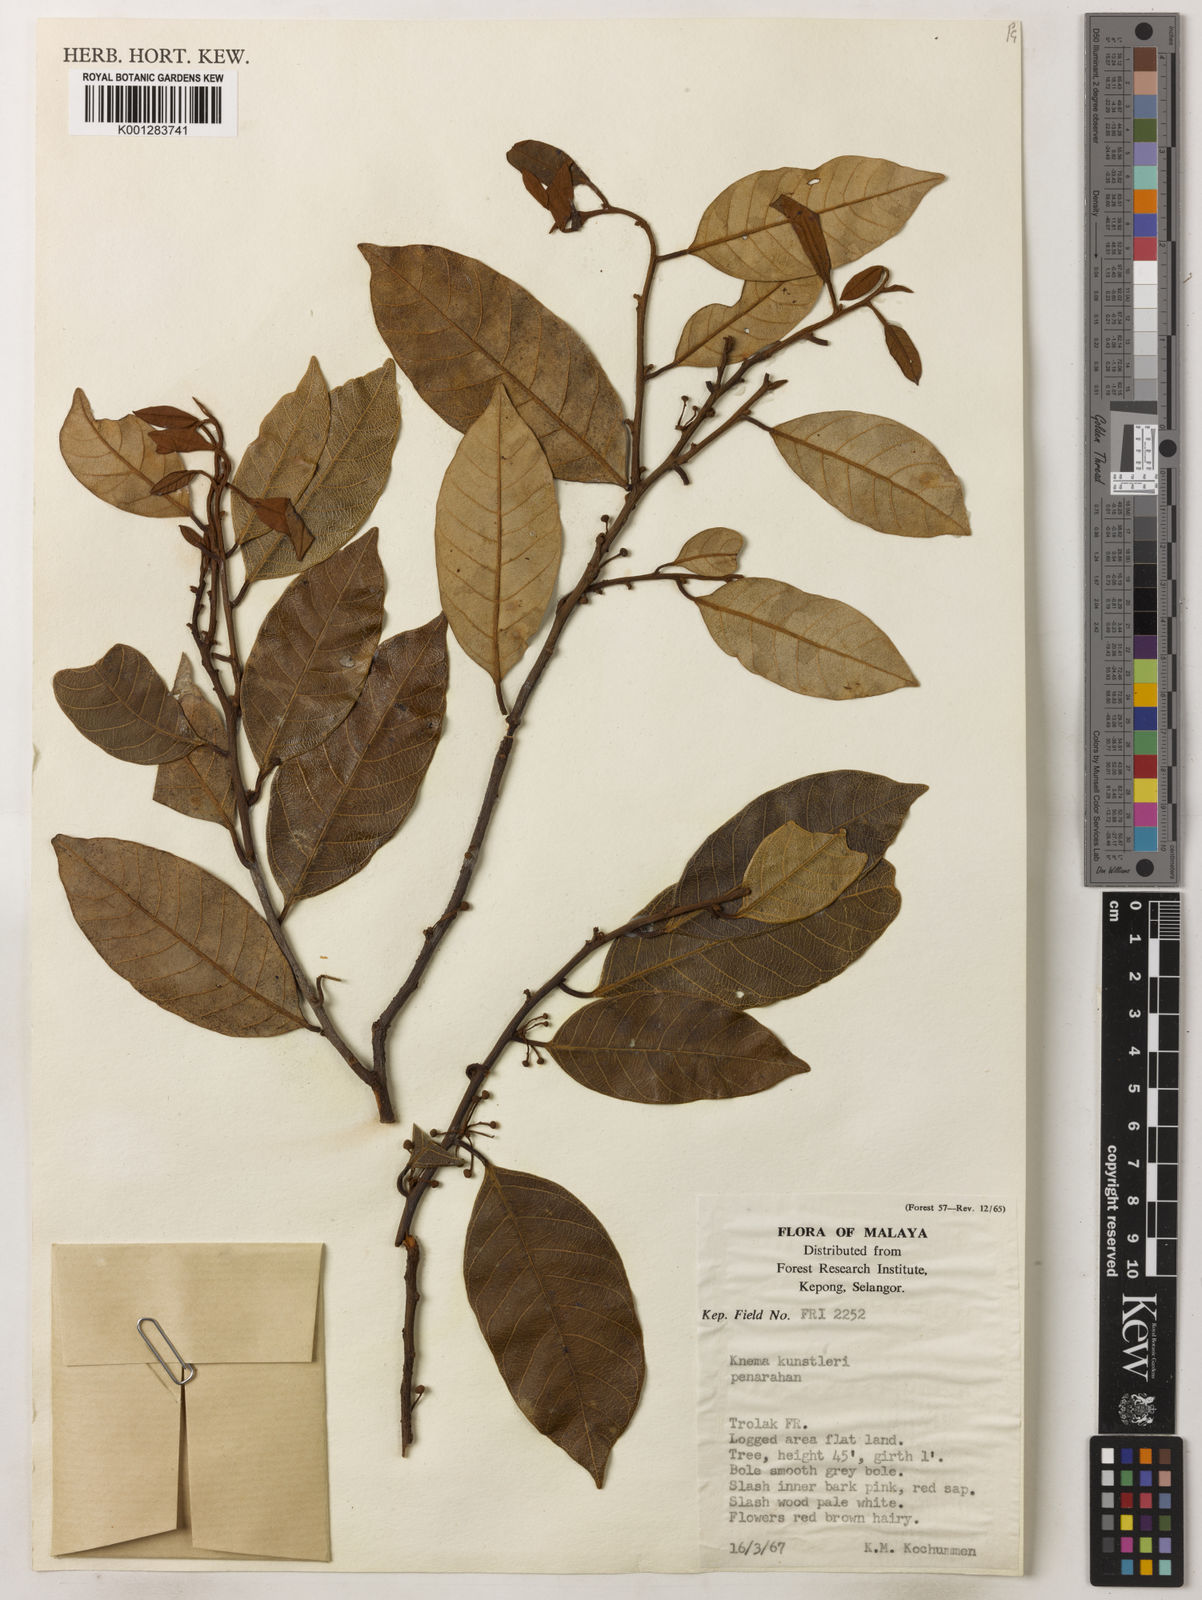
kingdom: Plantae
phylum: Tracheophyta
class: Magnoliopsida
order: Magnoliales
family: Myristicaceae
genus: Knema
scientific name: Knema kunstleri
